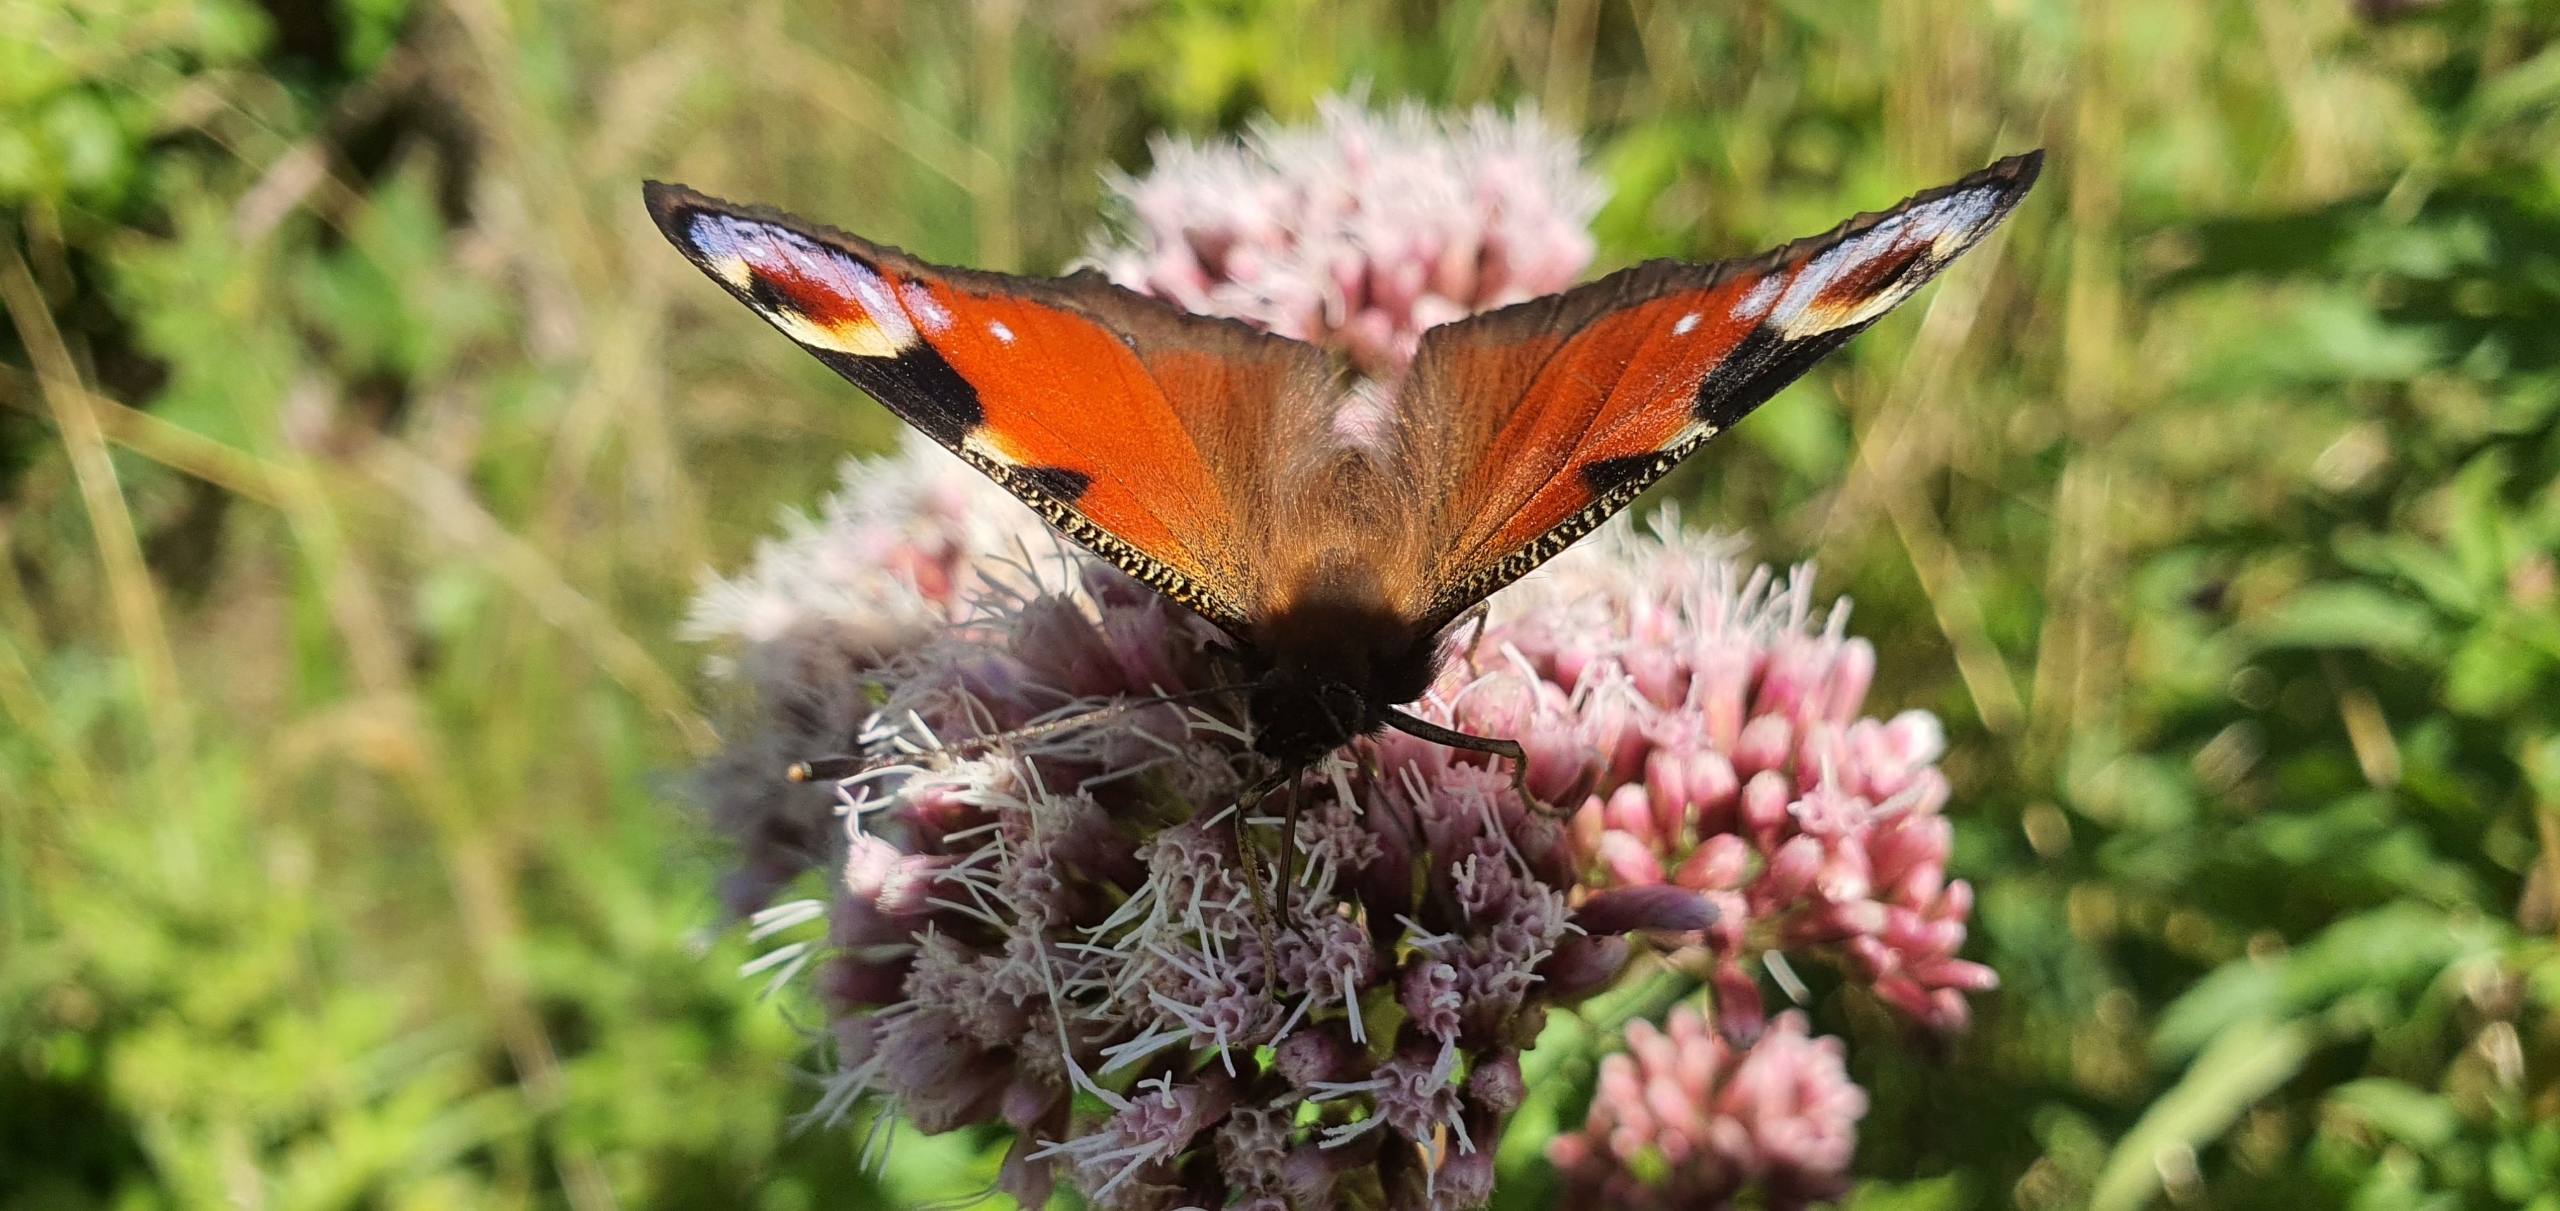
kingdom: Animalia
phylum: Arthropoda
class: Insecta
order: Lepidoptera
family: Nymphalidae
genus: Aglais
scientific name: Aglais io
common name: Dagpåfugleøje
